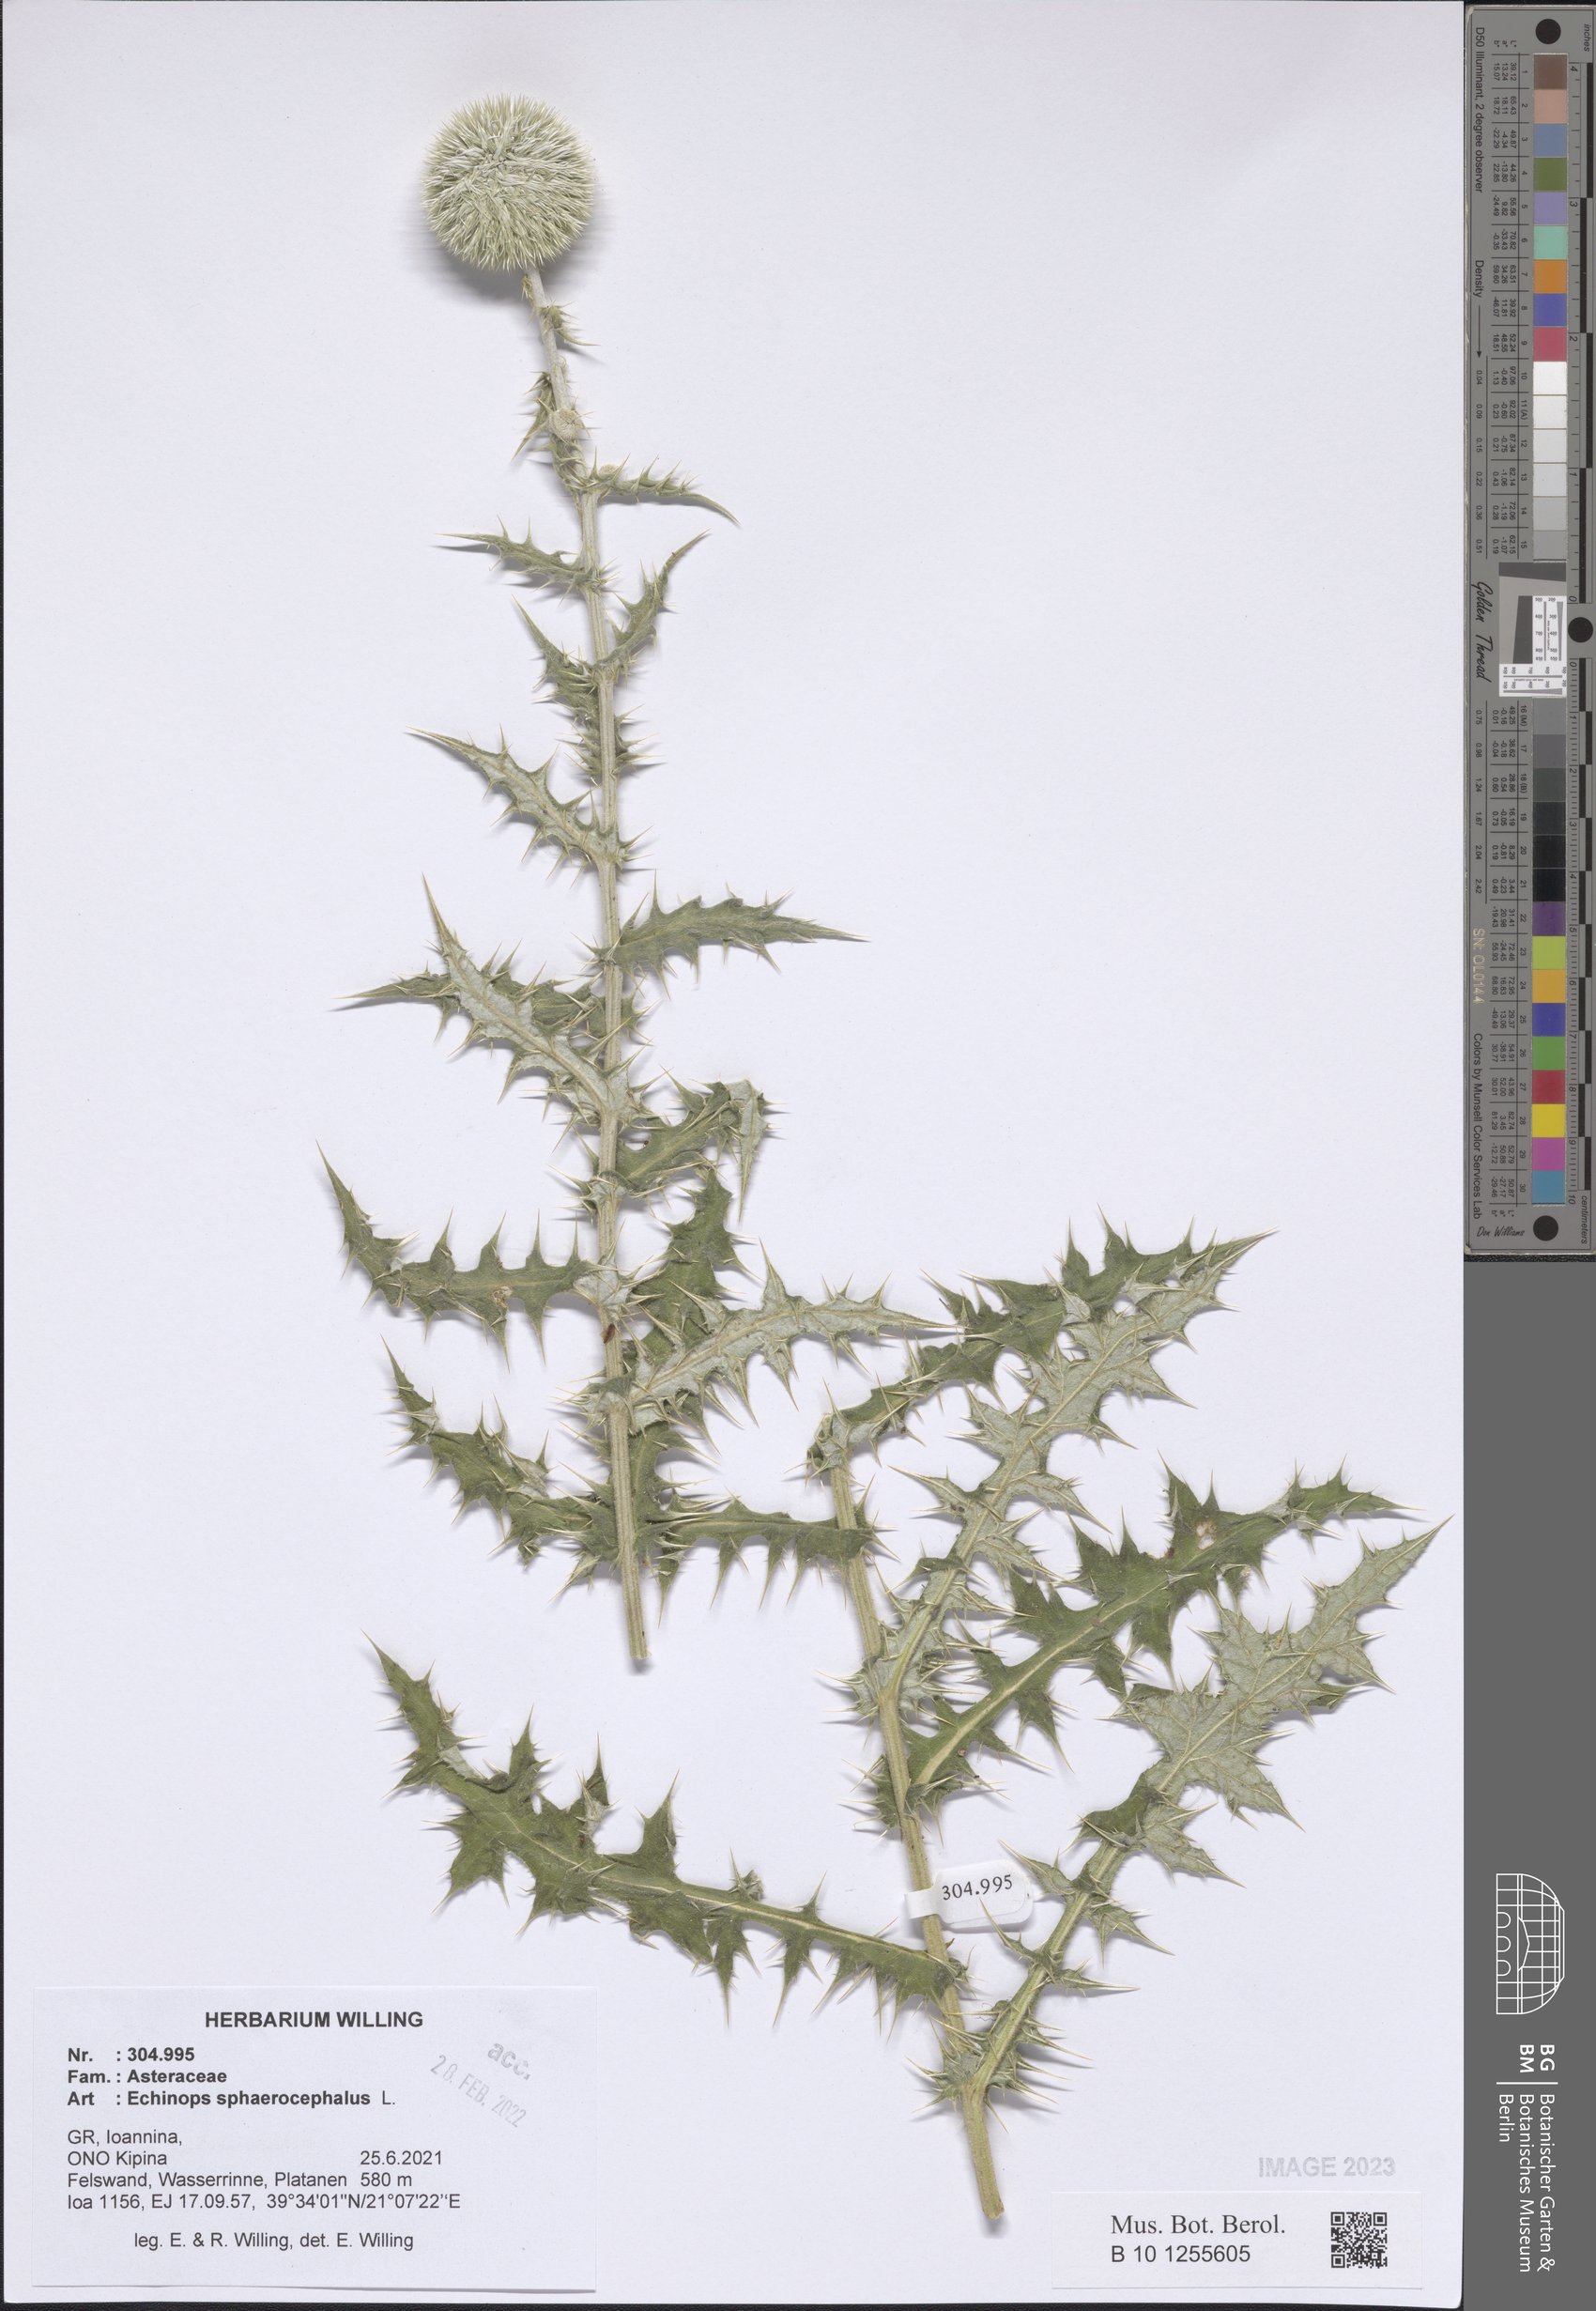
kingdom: Plantae
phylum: Tracheophyta
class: Magnoliopsida
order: Asterales
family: Asteraceae
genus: Echinops
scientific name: Echinops sphaerocephalus
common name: Glandular globe-thistle
